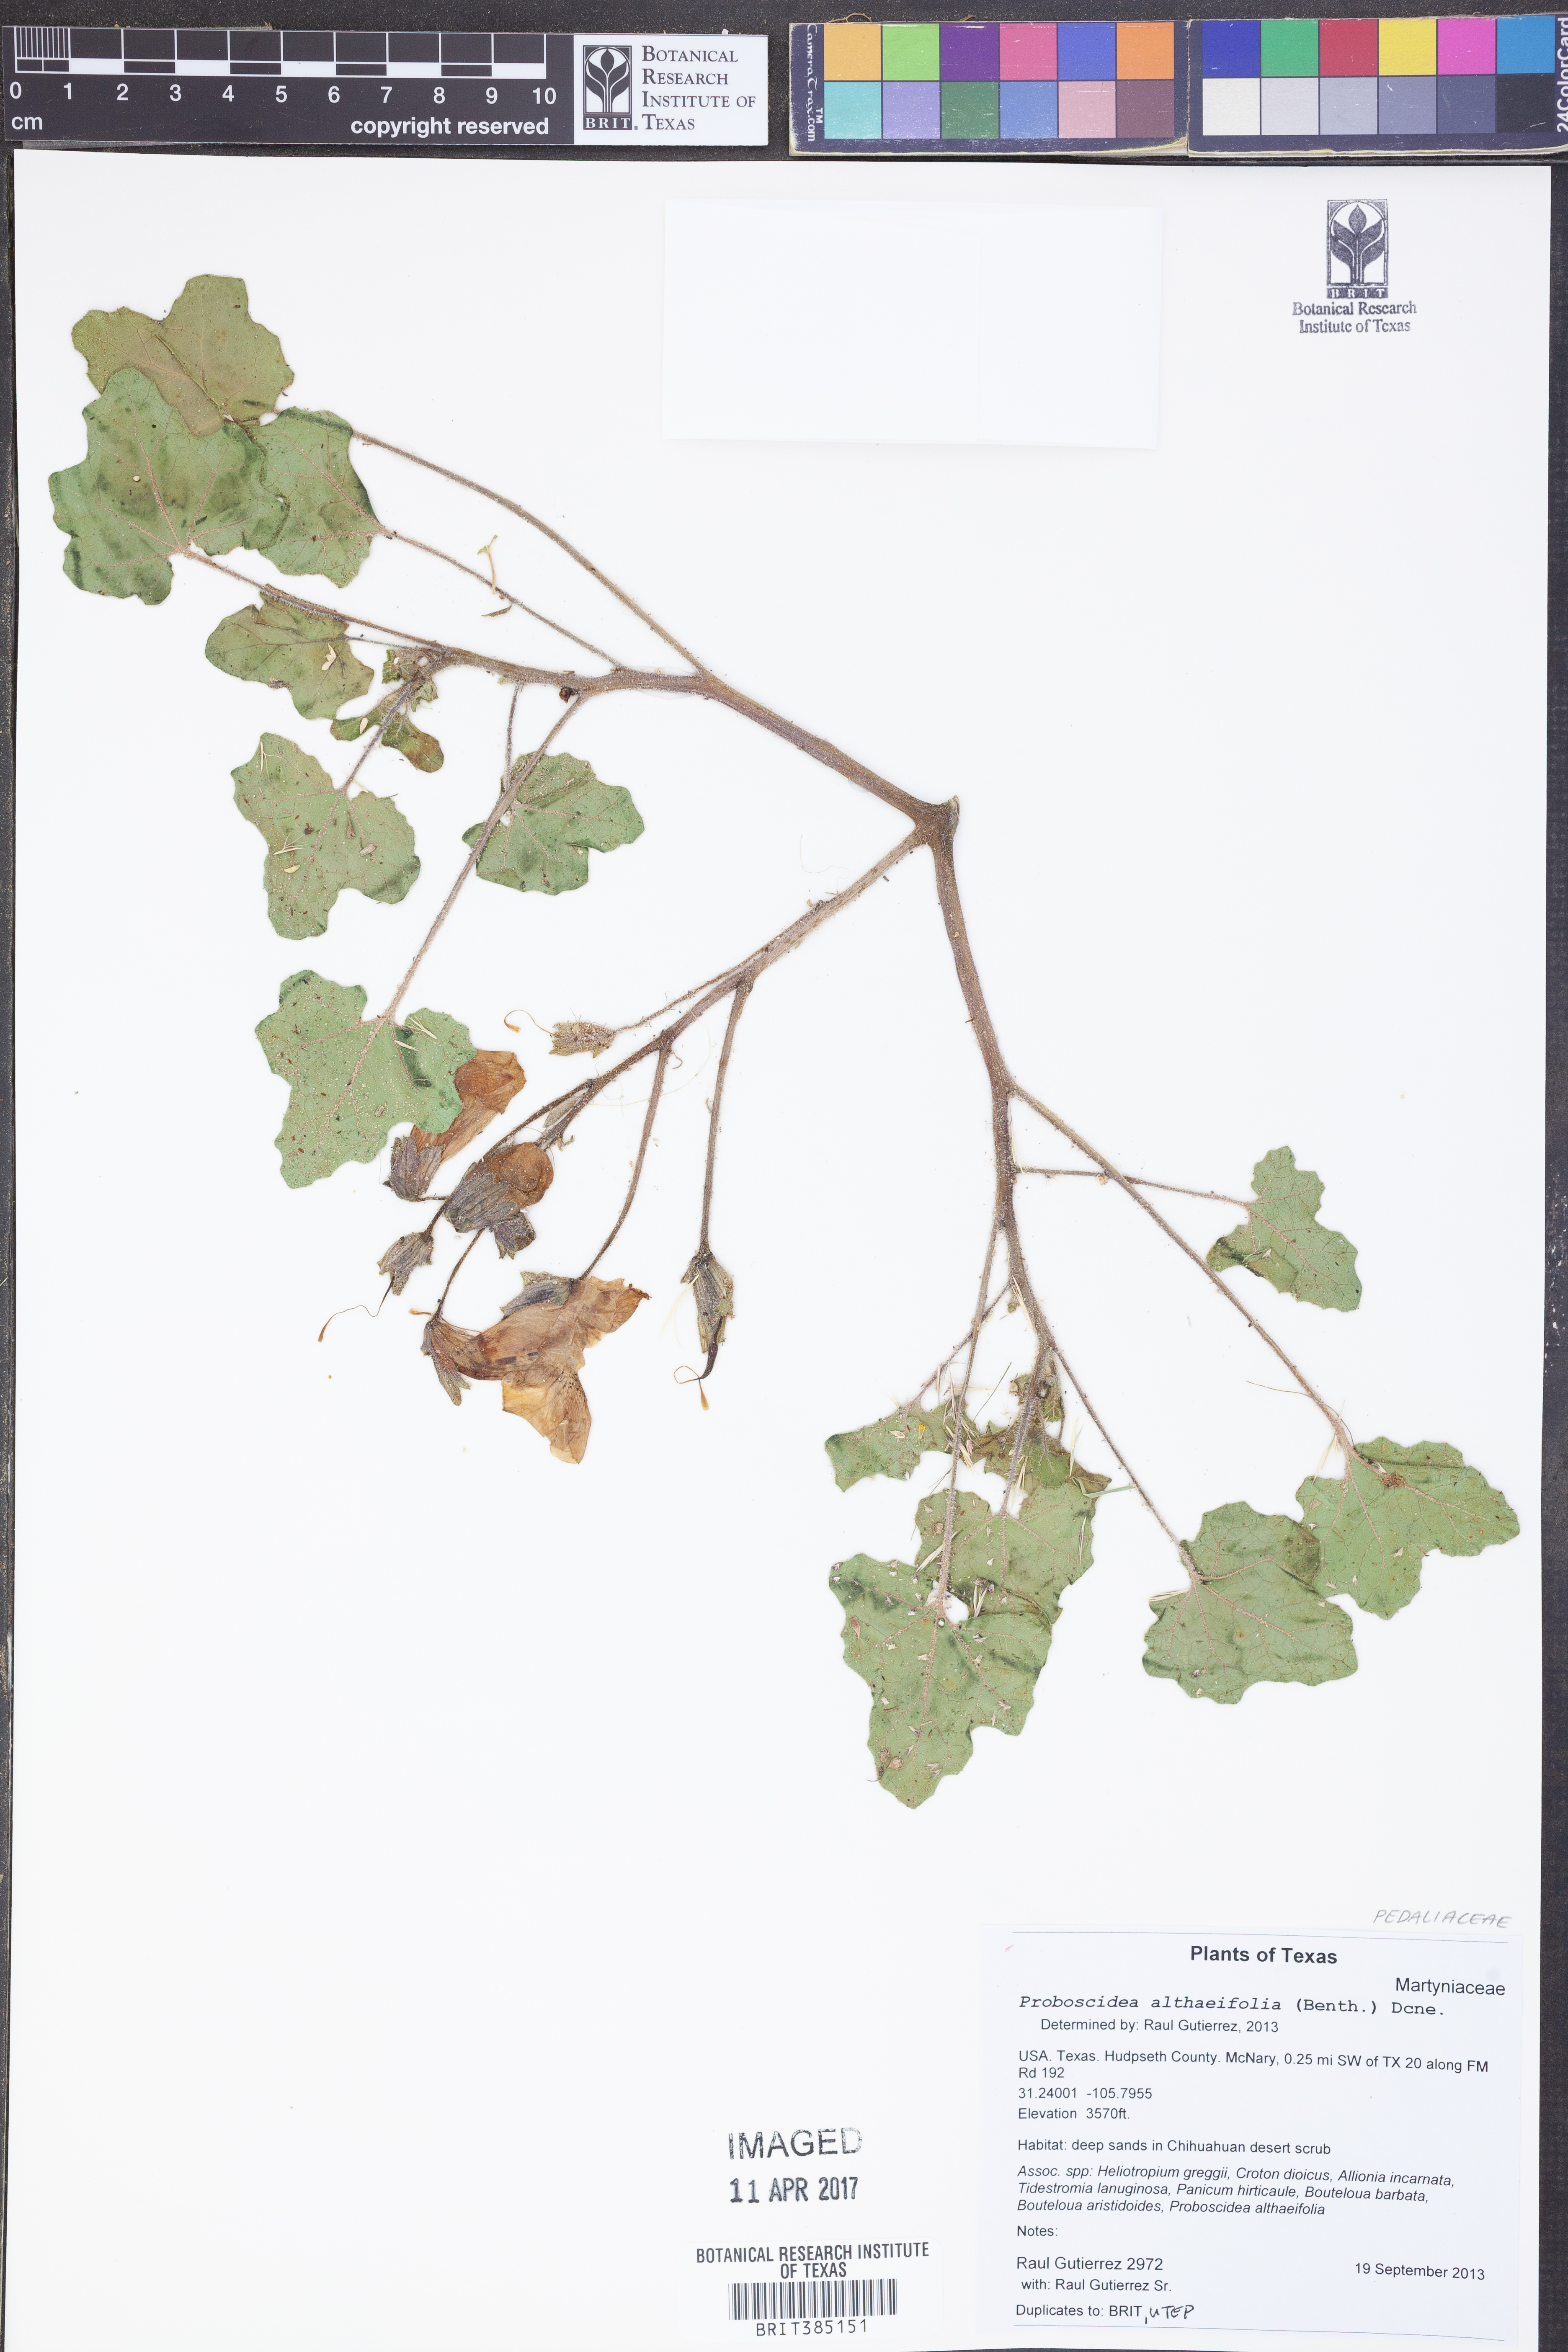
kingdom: Plantae
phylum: Tracheophyta
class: Magnoliopsida
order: Lamiales
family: Martyniaceae
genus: Proboscidea
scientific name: Proboscidea althaeifolia
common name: Desert unicorn-plant
